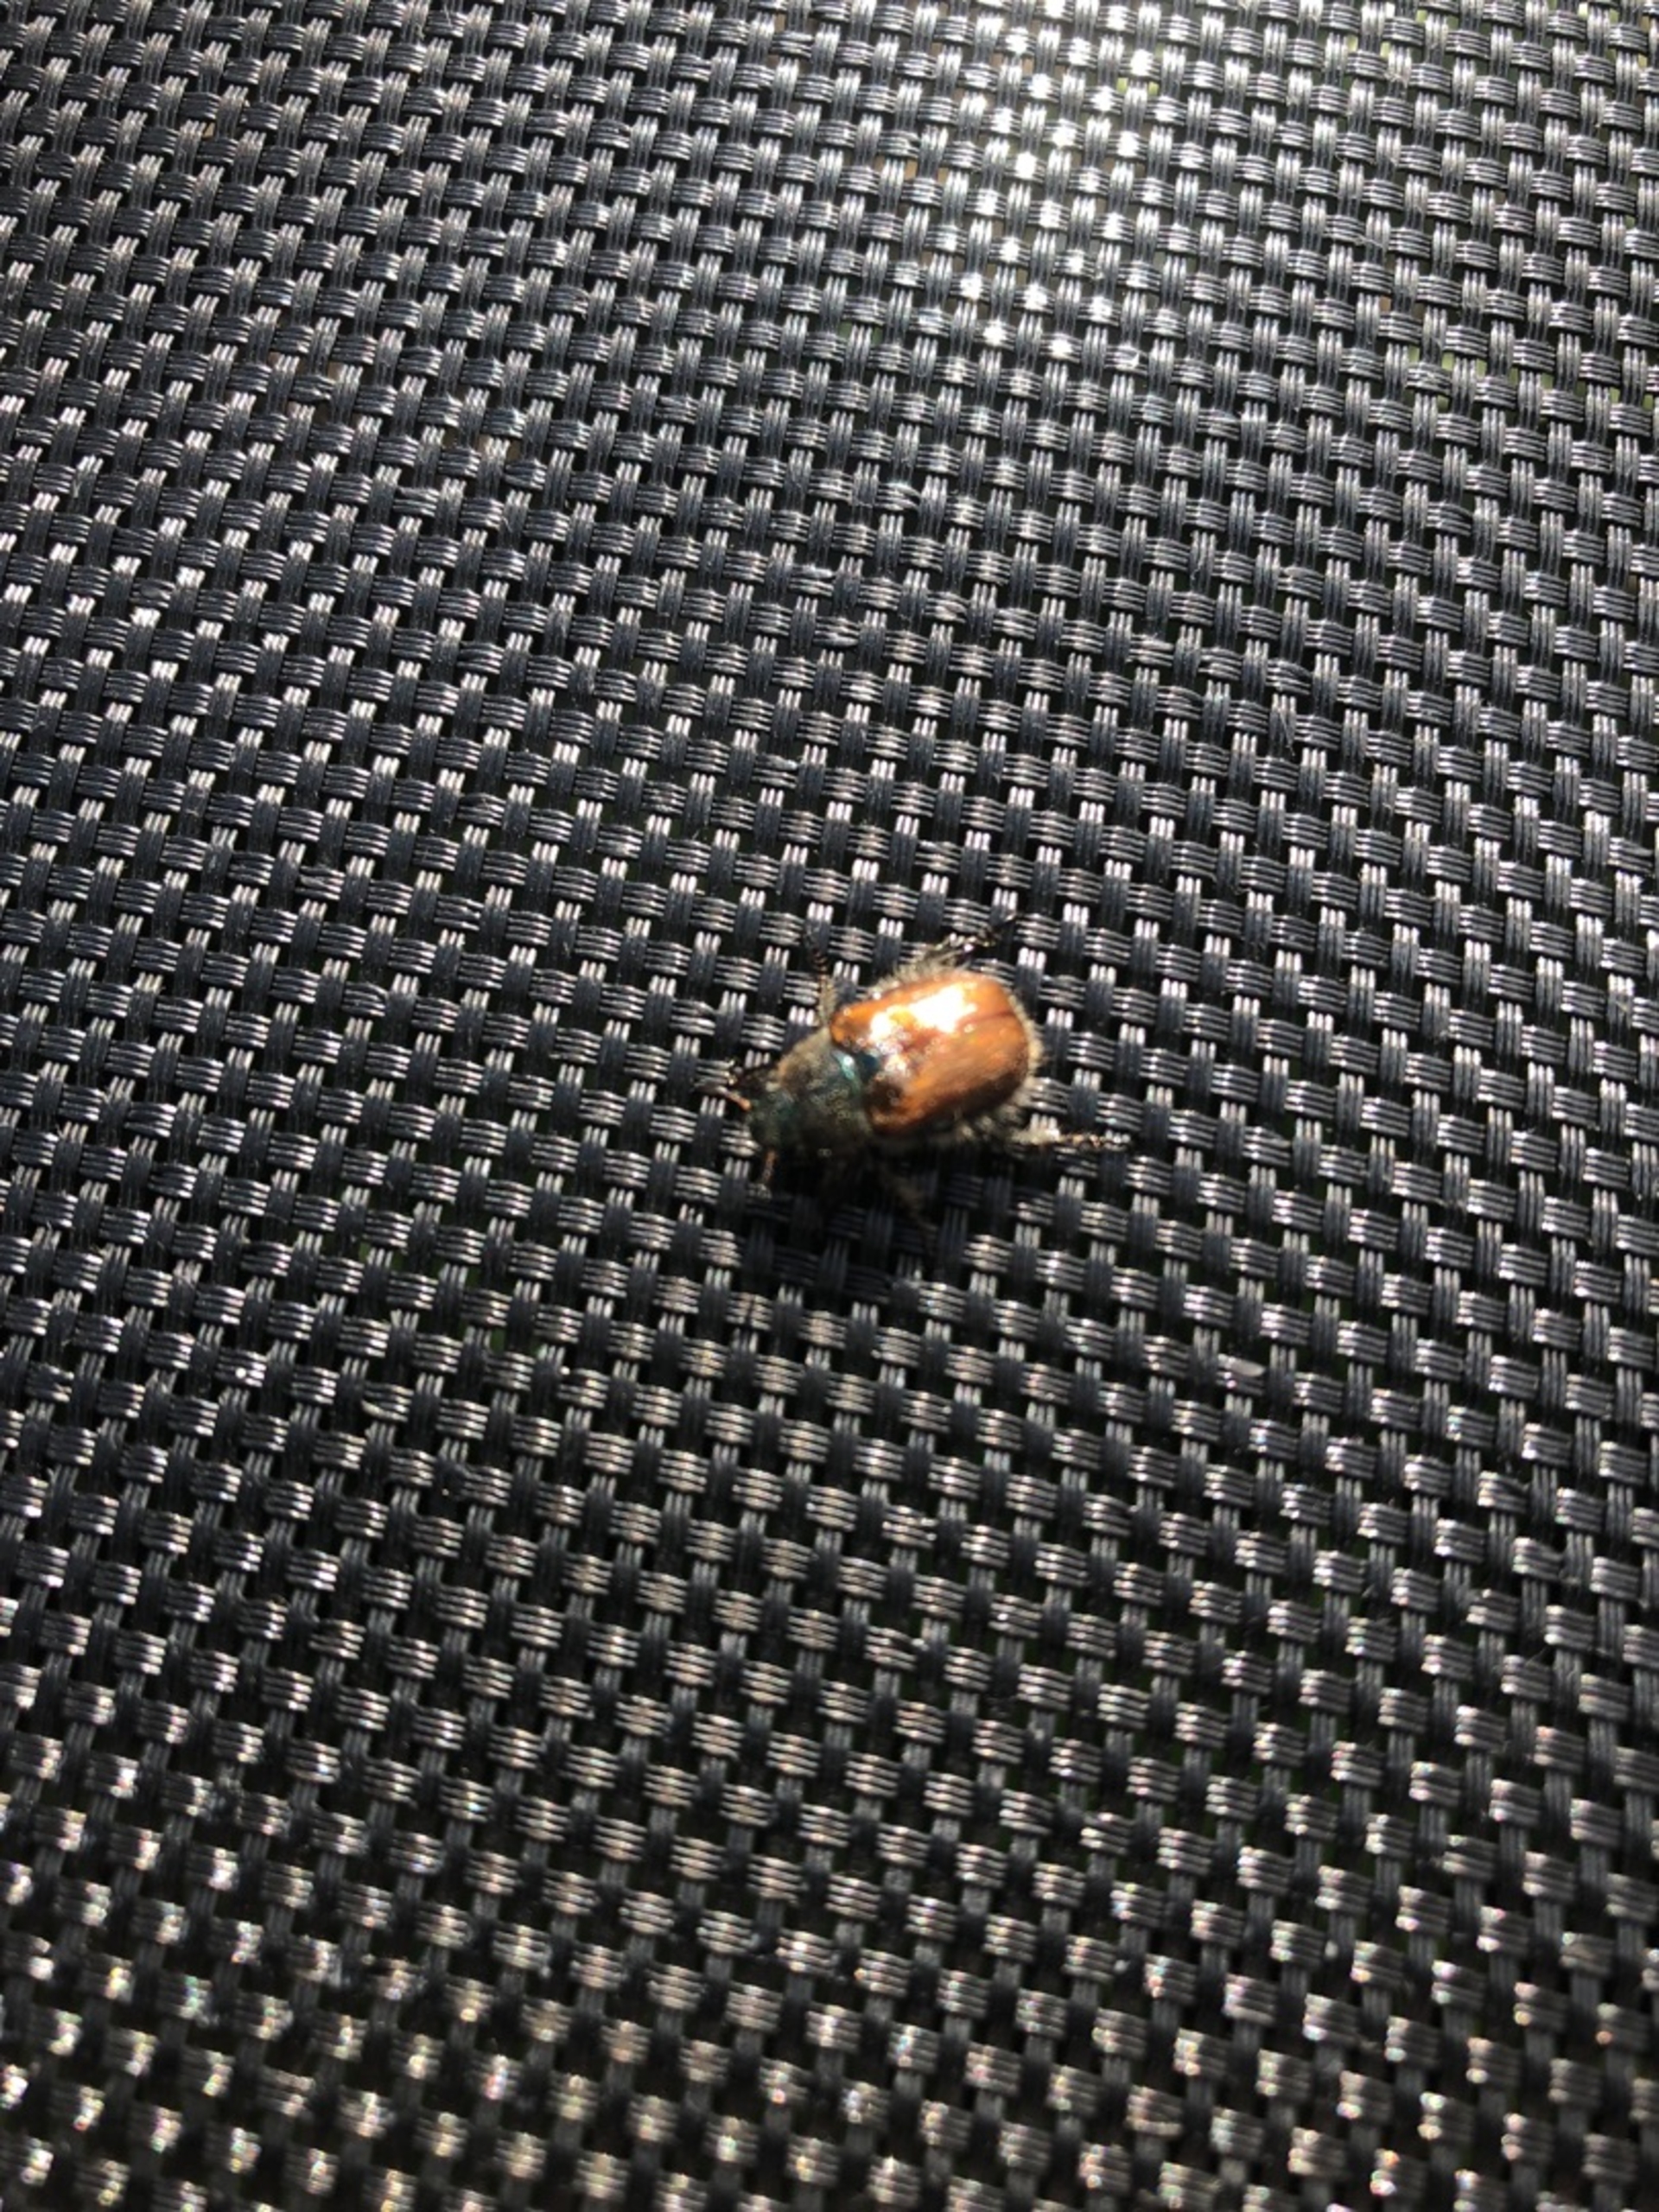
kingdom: Animalia
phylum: Arthropoda
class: Insecta
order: Coleoptera
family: Scarabaeidae
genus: Phyllopertha
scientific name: Phyllopertha horticola
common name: Gåsebille
